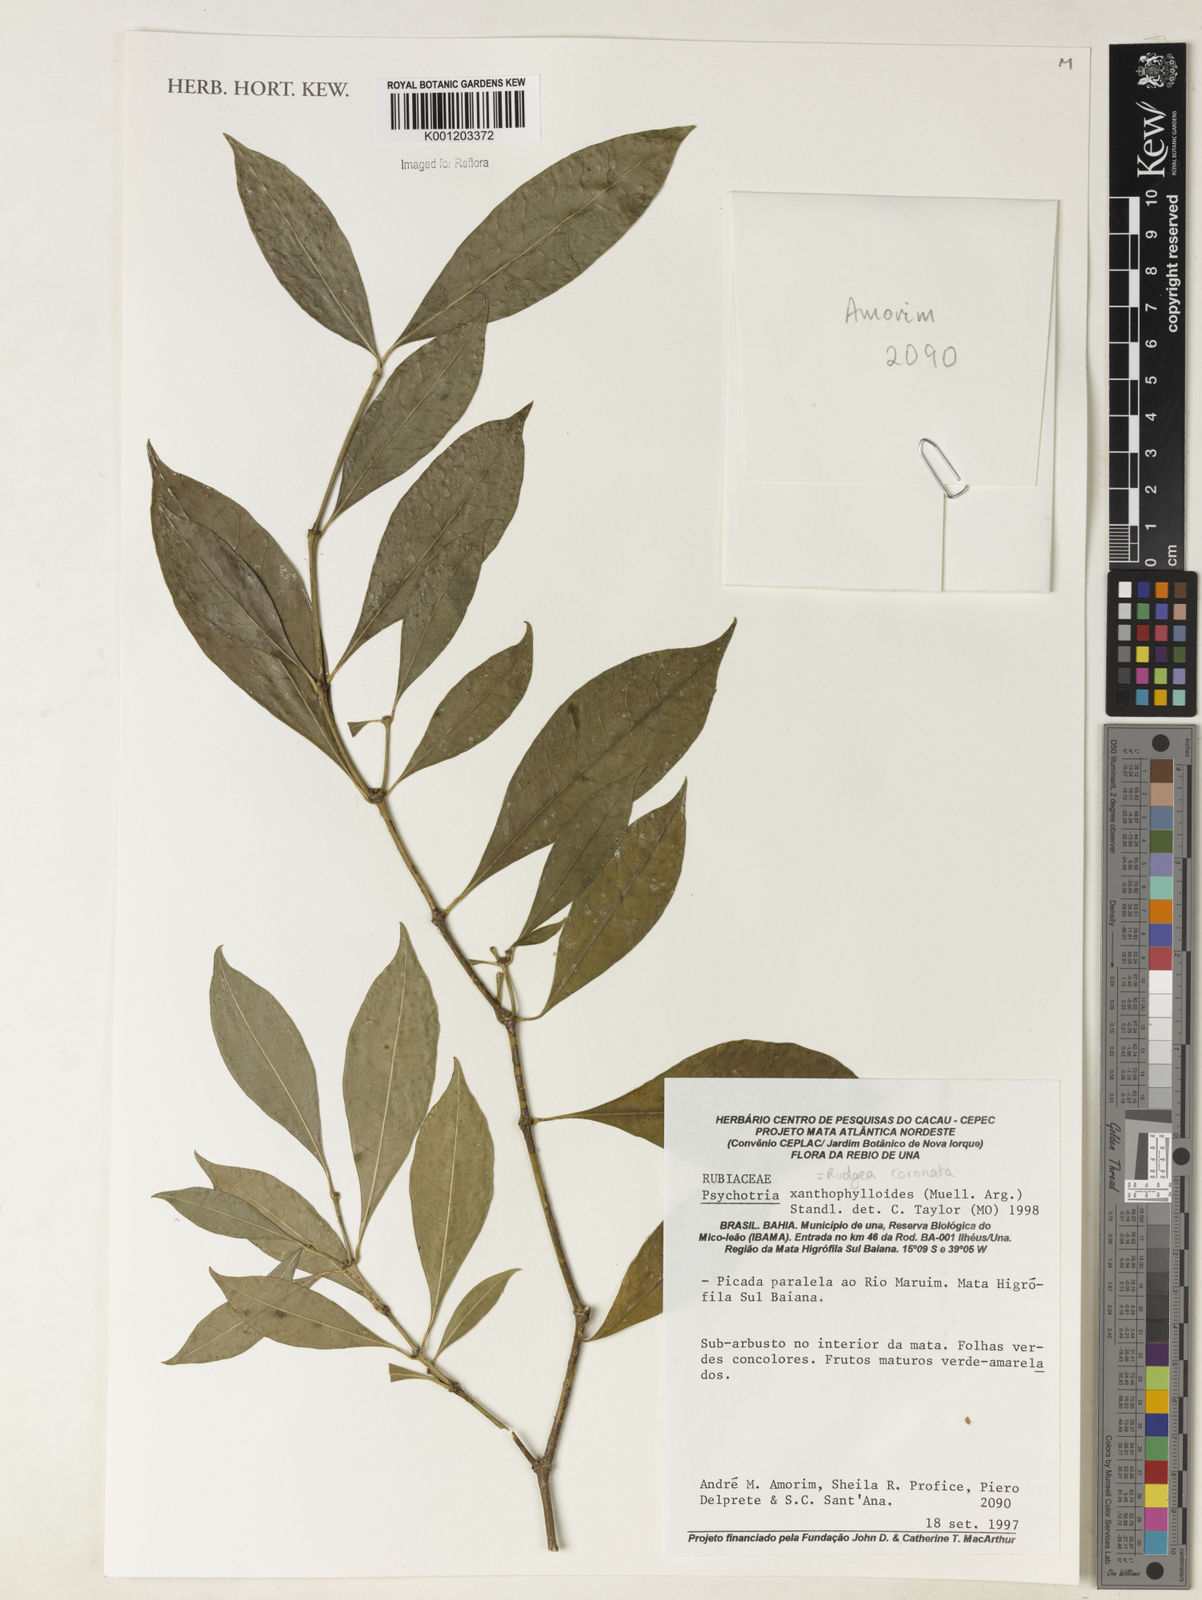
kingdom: Plantae
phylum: Tracheophyta
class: Magnoliopsida
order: Gentianales
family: Rubiaceae
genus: Rudgea
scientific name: Rudgea
